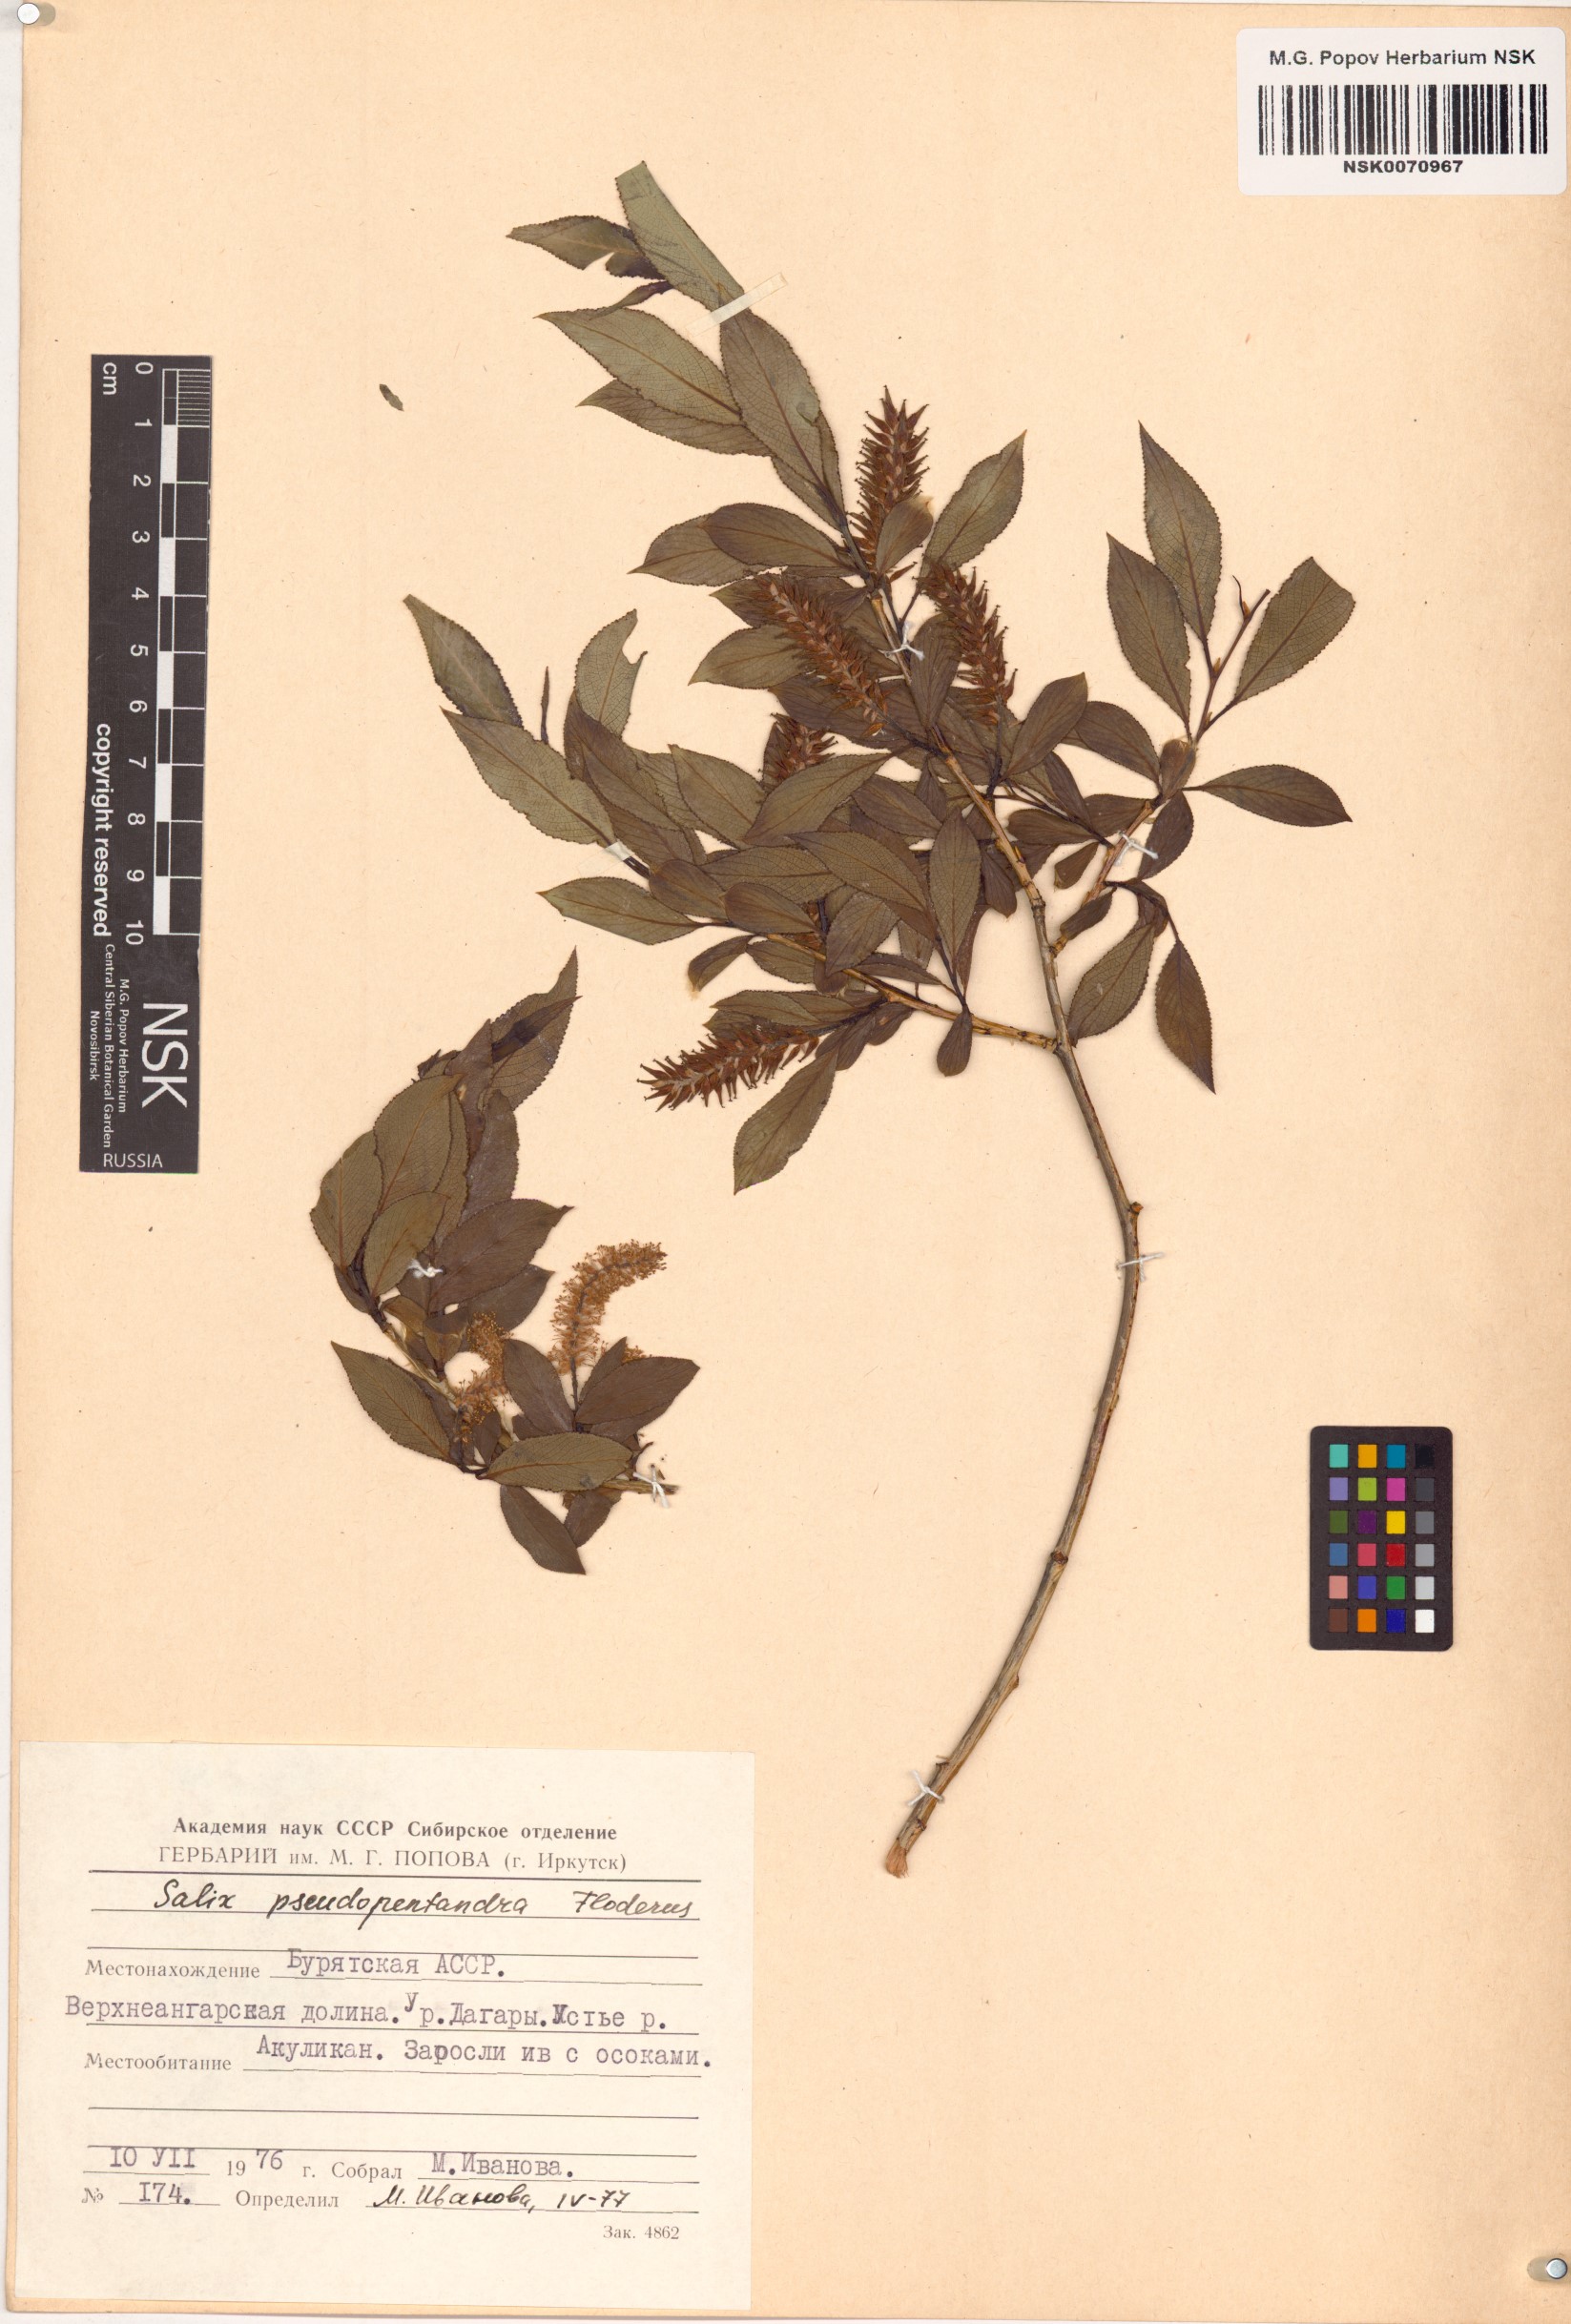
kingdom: Plantae
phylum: Tracheophyta
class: Magnoliopsida
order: Malpighiales
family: Salicaceae
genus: Salix
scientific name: Salix pseudopentandra
